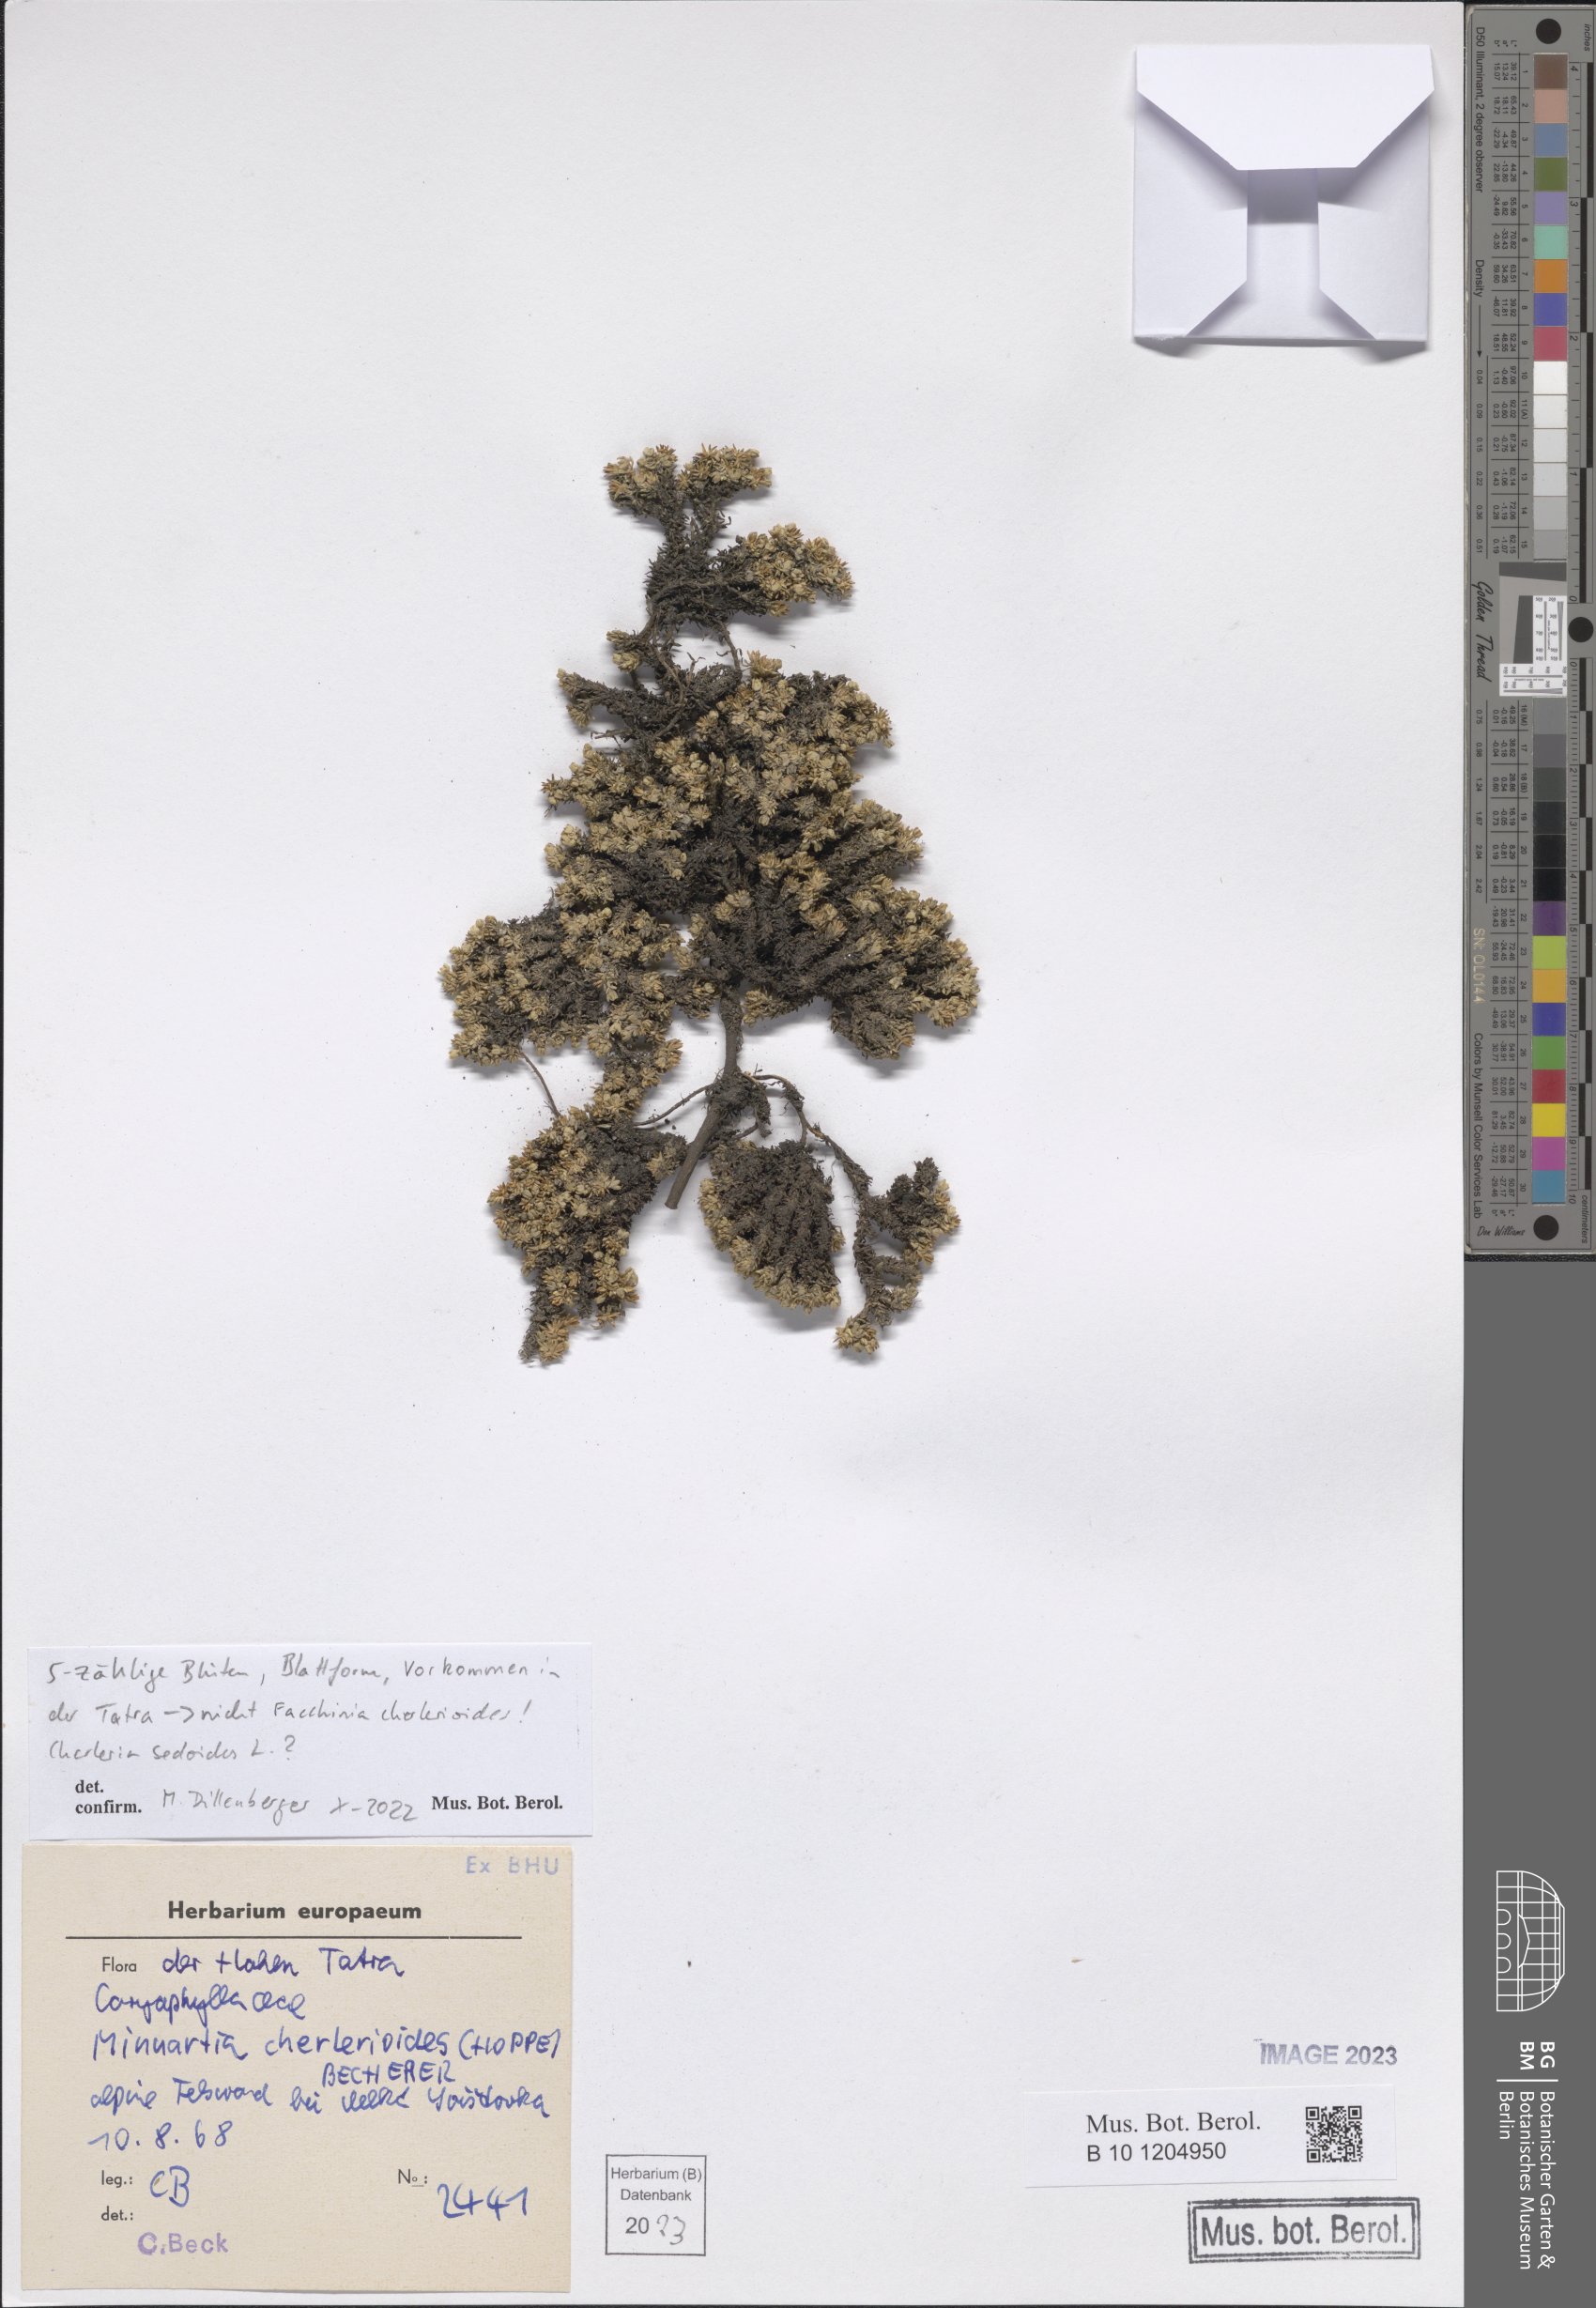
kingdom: Plantae
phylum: Tracheophyta
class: Magnoliopsida
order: Caryophyllales
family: Caryophyllaceae
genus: Cherleria
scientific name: Cherleria sedoides
